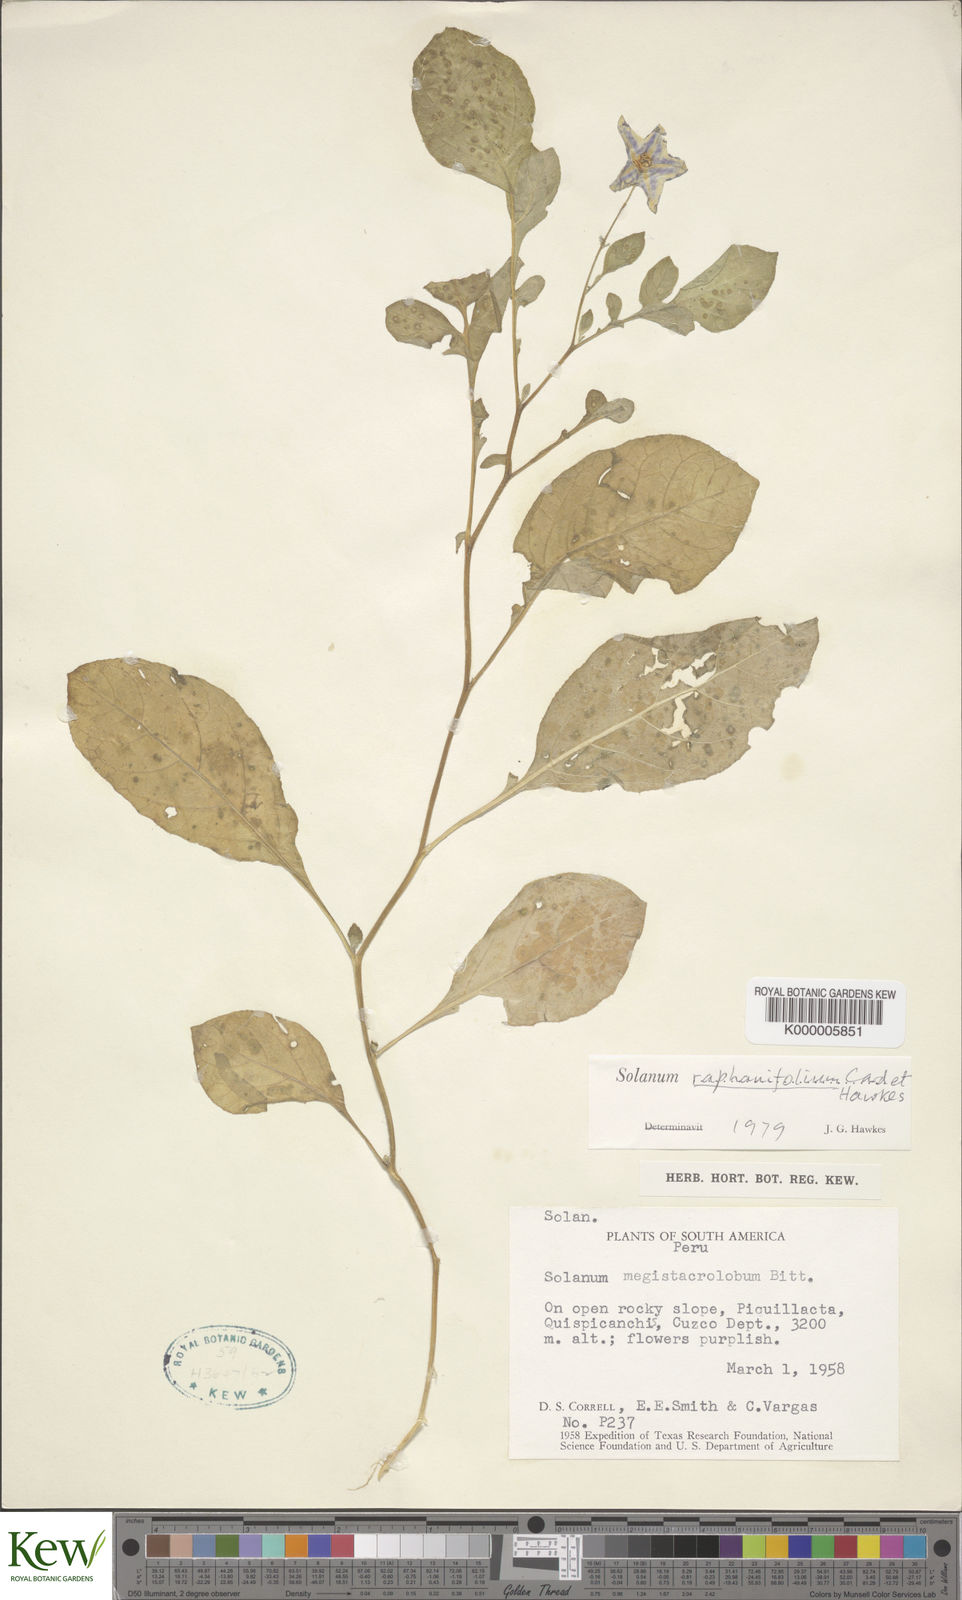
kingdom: Plantae
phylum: Tracheophyta
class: Magnoliopsida
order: Solanales
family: Solanaceae
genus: Solanum
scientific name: Solanum raphanifolium
